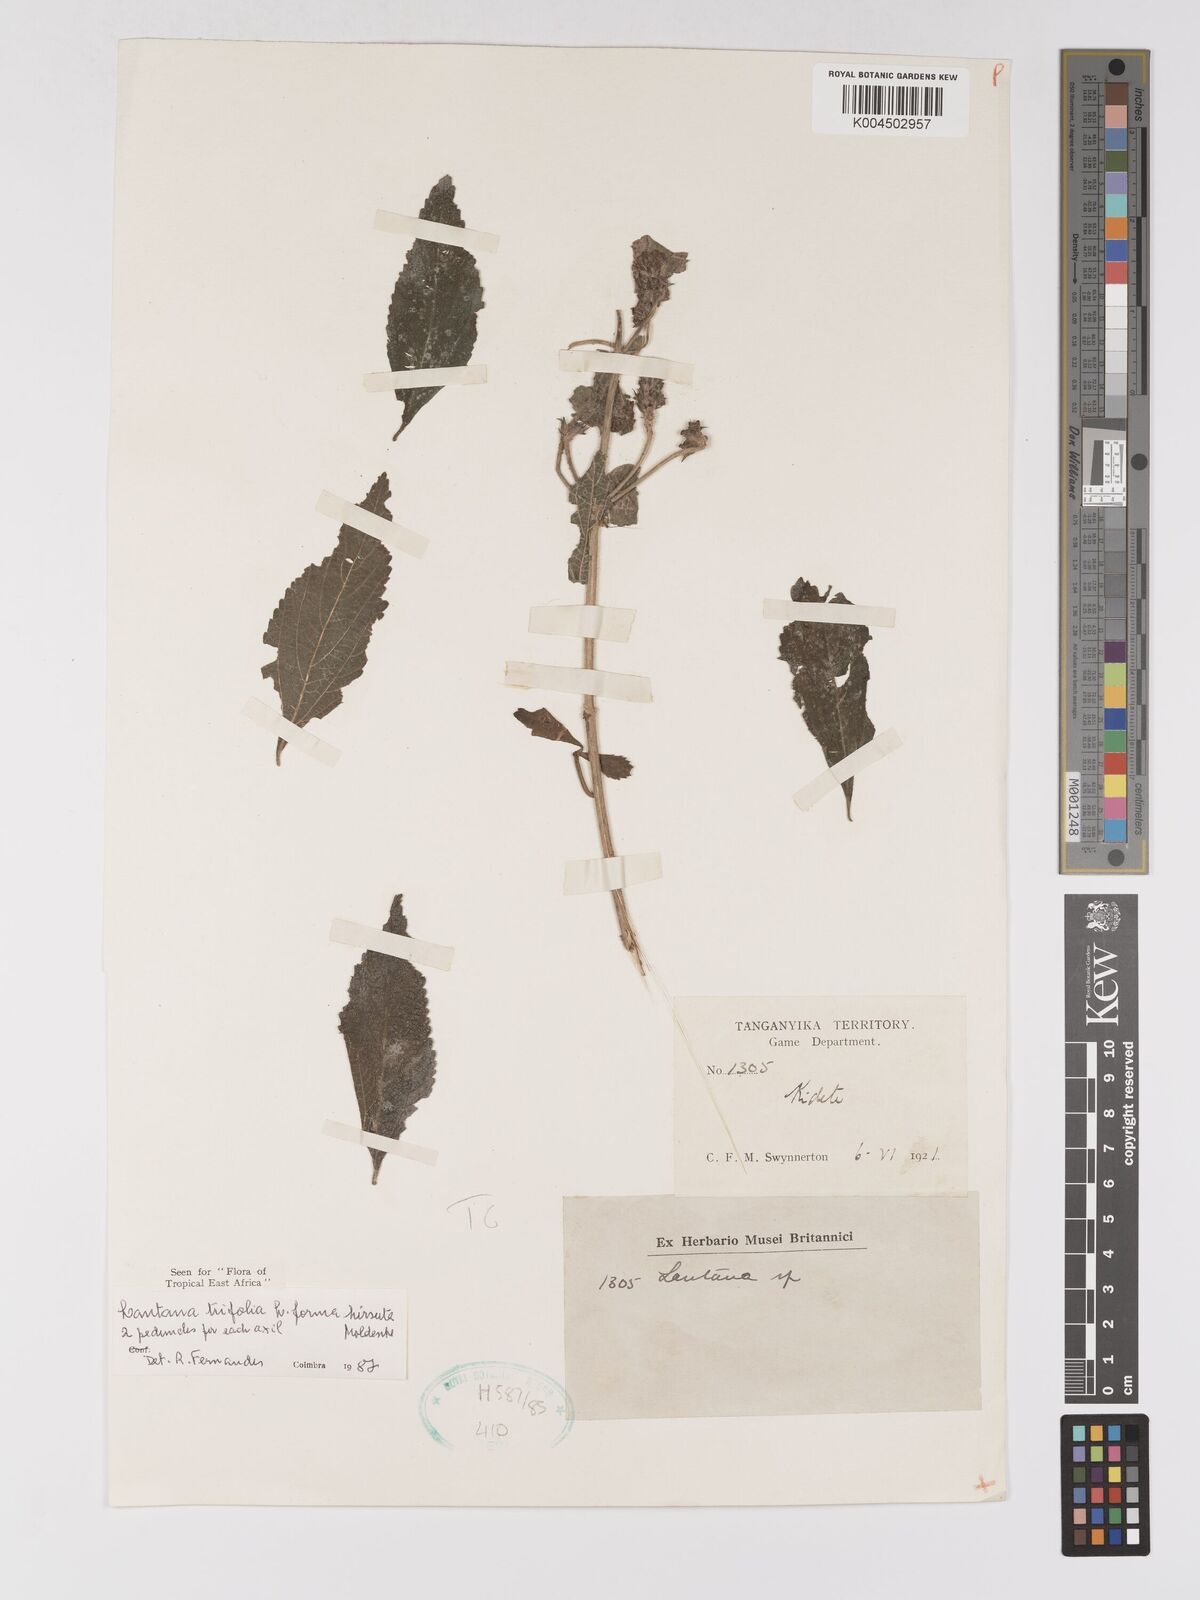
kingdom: Plantae
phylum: Tracheophyta
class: Magnoliopsida
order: Lamiales
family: Verbenaceae
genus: Lantana
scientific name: Lantana trifolia
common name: Sweet-sage
